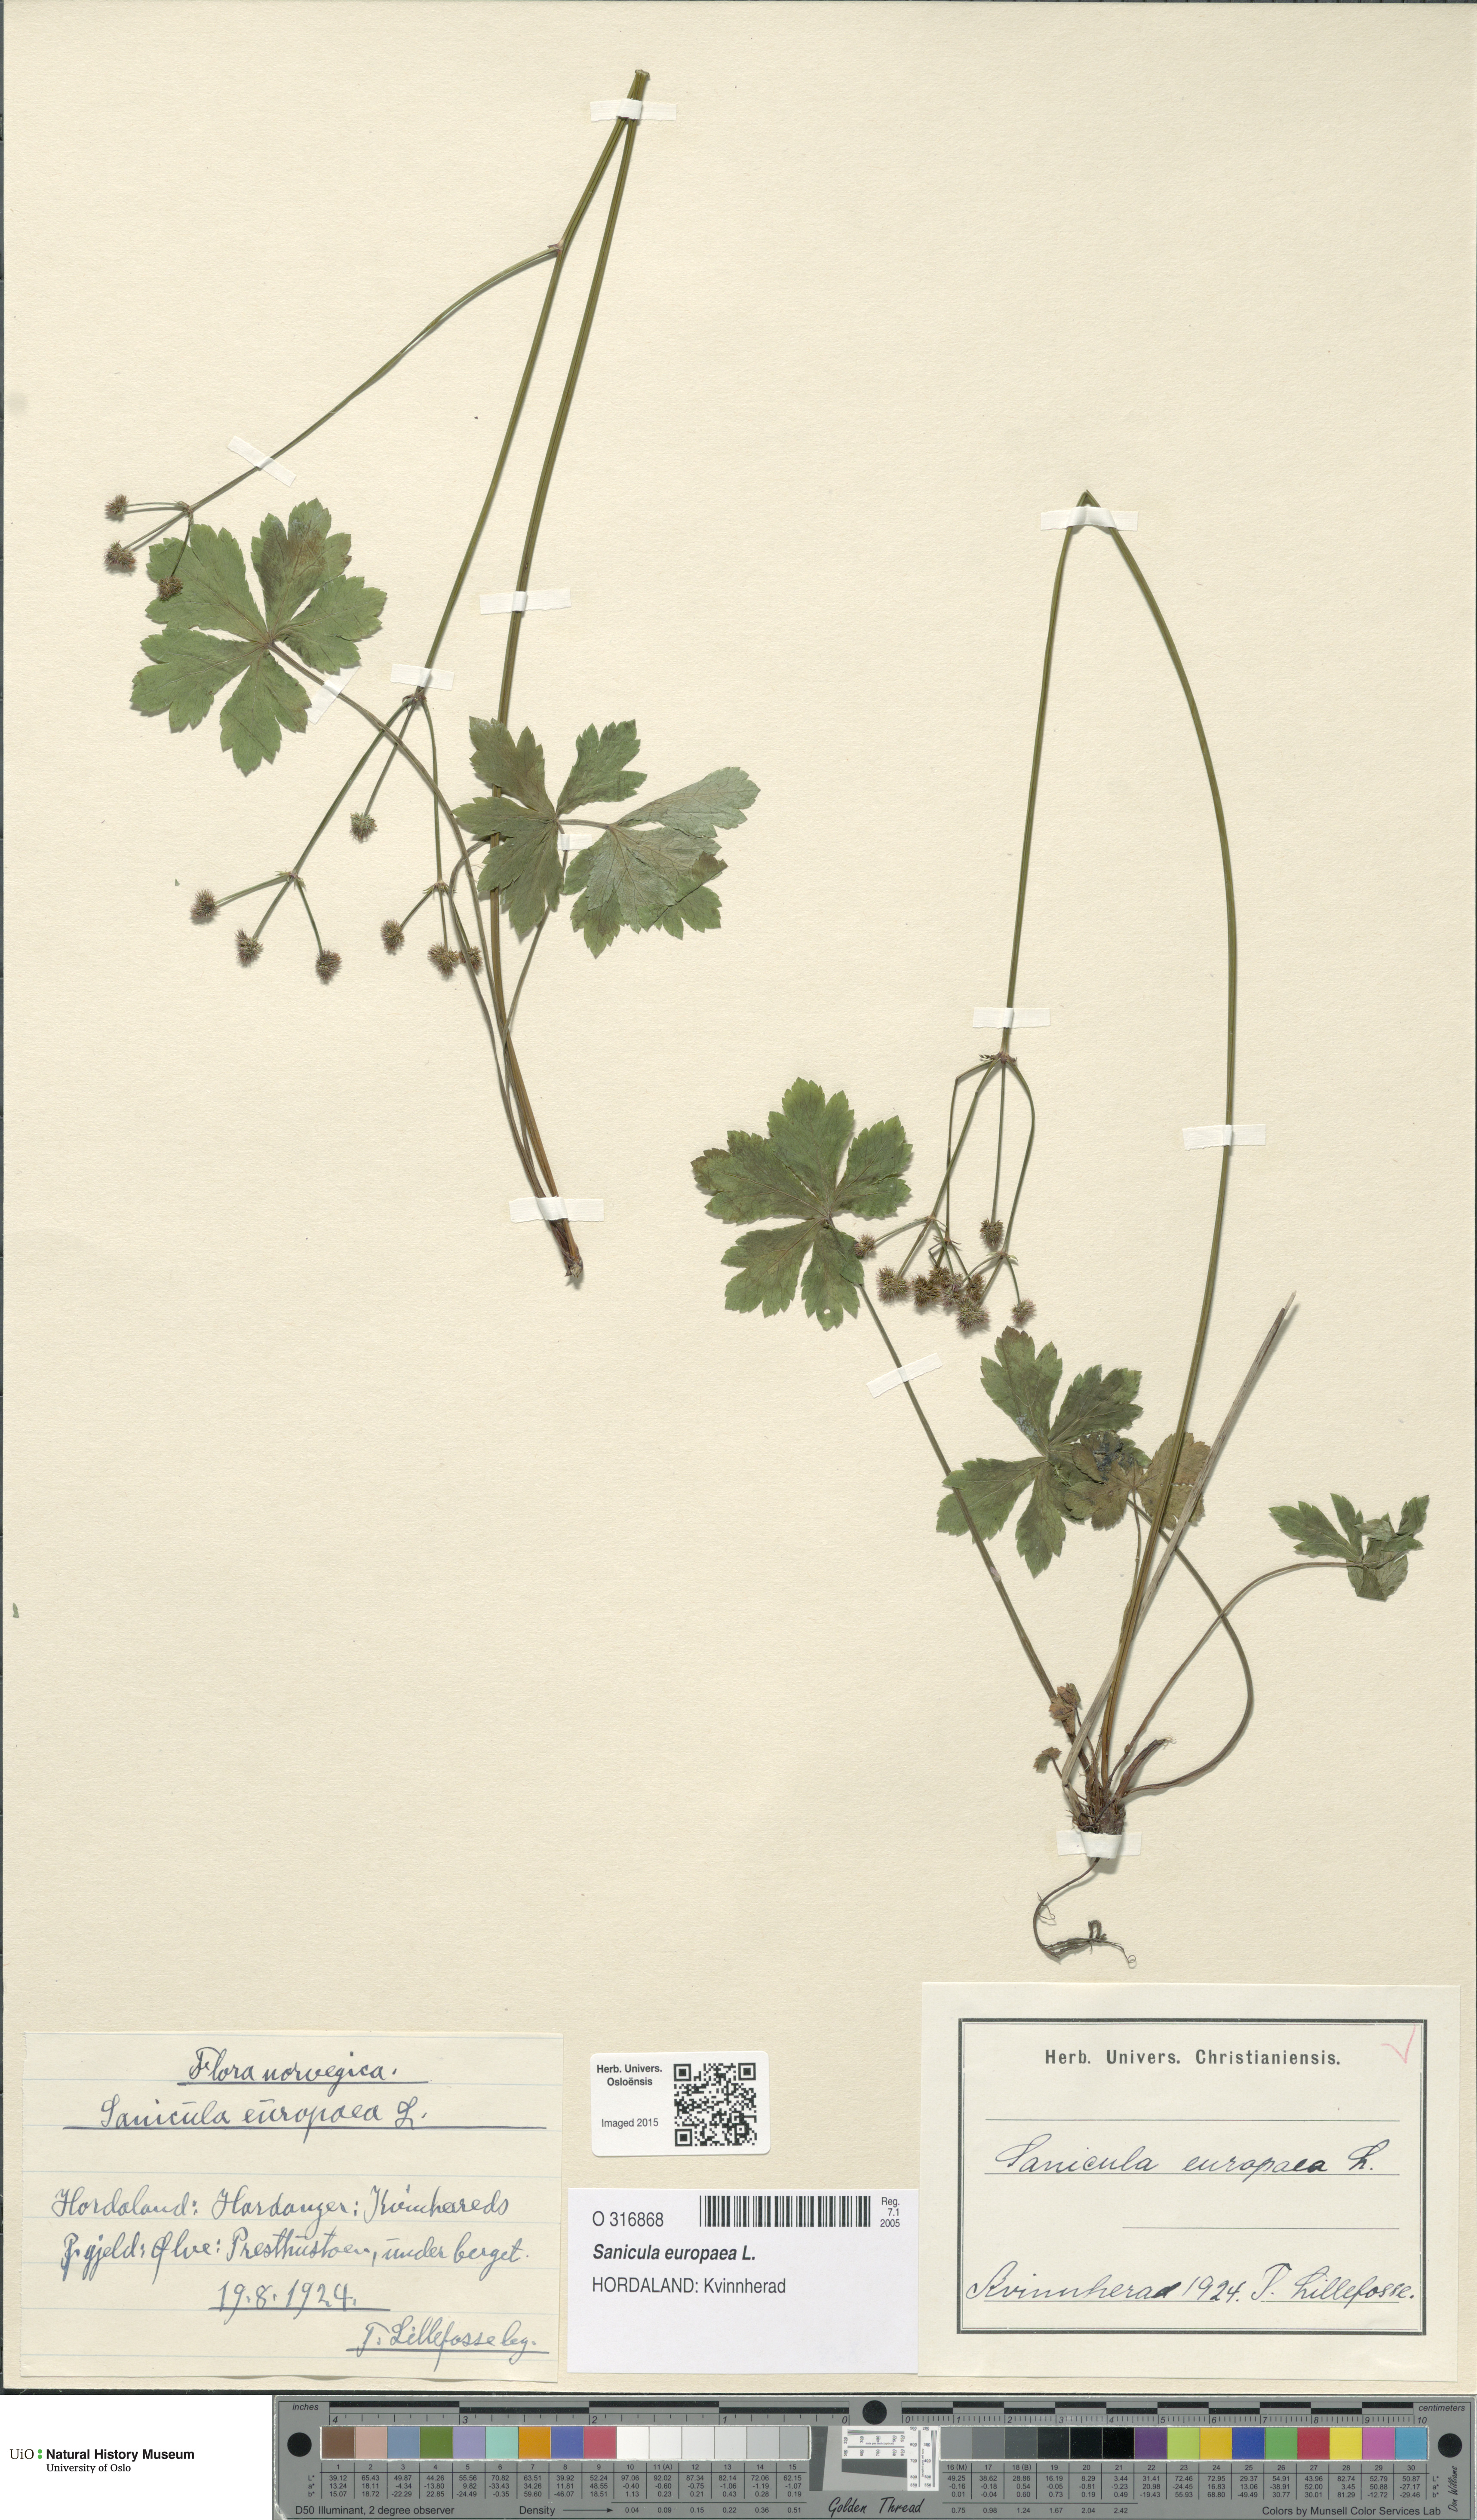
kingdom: Plantae
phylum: Tracheophyta
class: Magnoliopsida
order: Apiales
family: Apiaceae
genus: Sanicula
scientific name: Sanicula europaea
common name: Sanicle
